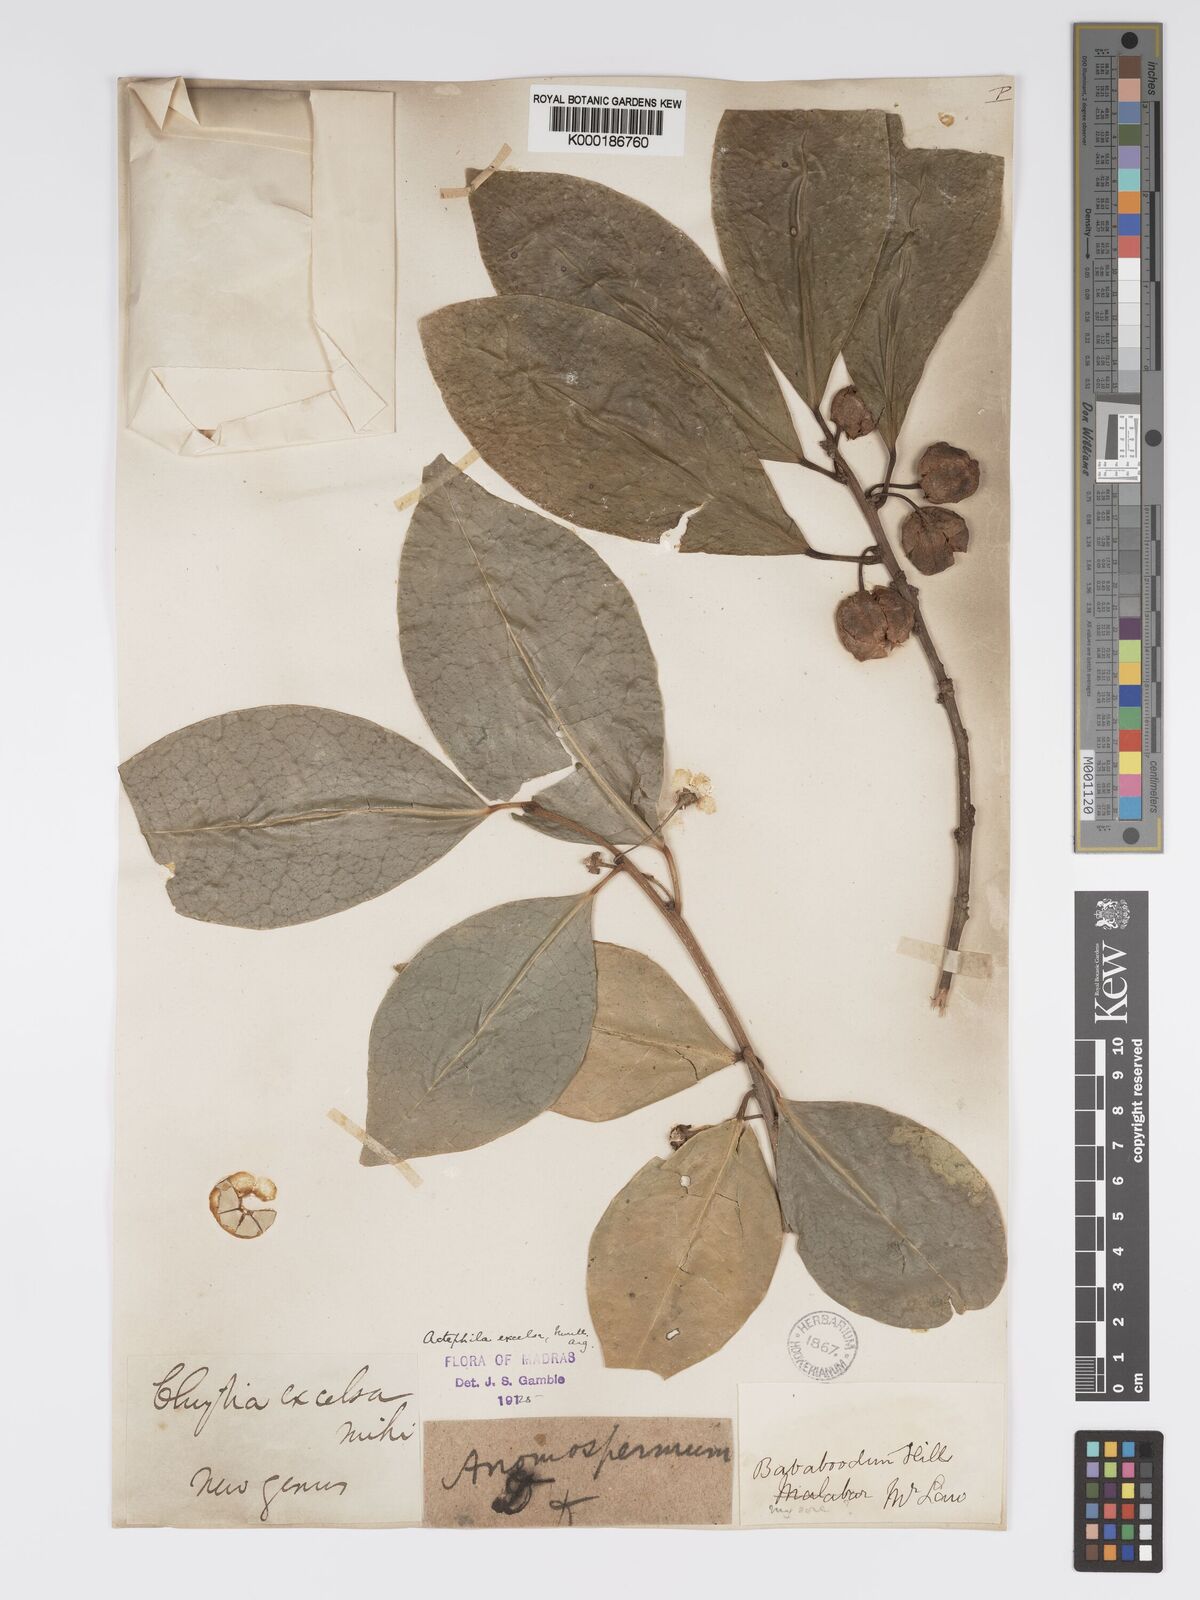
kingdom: Plantae
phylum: Tracheophyta
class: Magnoliopsida
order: Malpighiales
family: Phyllanthaceae
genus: Actephila
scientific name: Actephila excelsa
